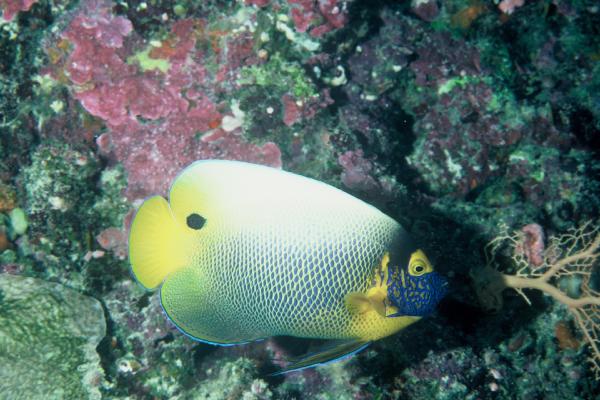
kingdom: Animalia
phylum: Chordata
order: Perciformes
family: Pomacanthidae
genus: Pomacanthus
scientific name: Pomacanthus xanthometopon
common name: Yellow-faced angelfish
